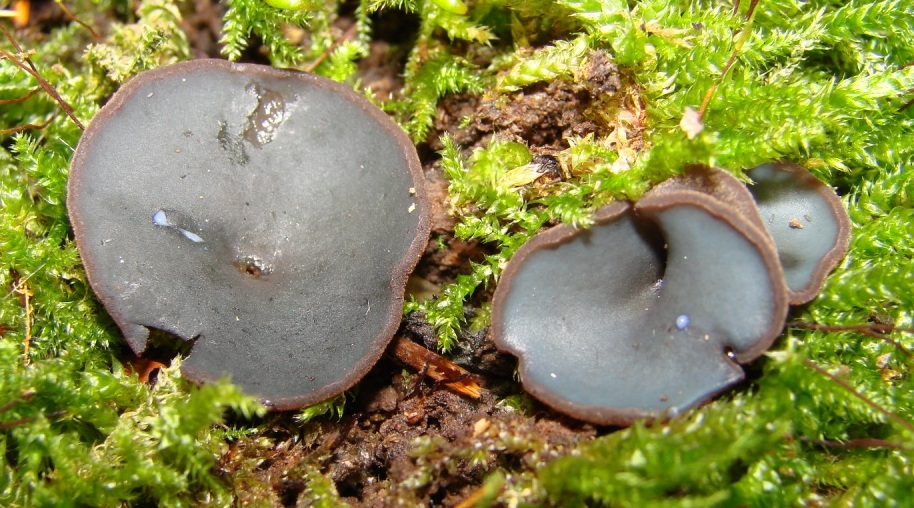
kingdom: Fungi
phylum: Ascomycota
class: Pezizomycetes
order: Pezizales
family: Pezizaceae
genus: Peziza
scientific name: Peziza saniosa
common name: blåmælket bægersvamp
